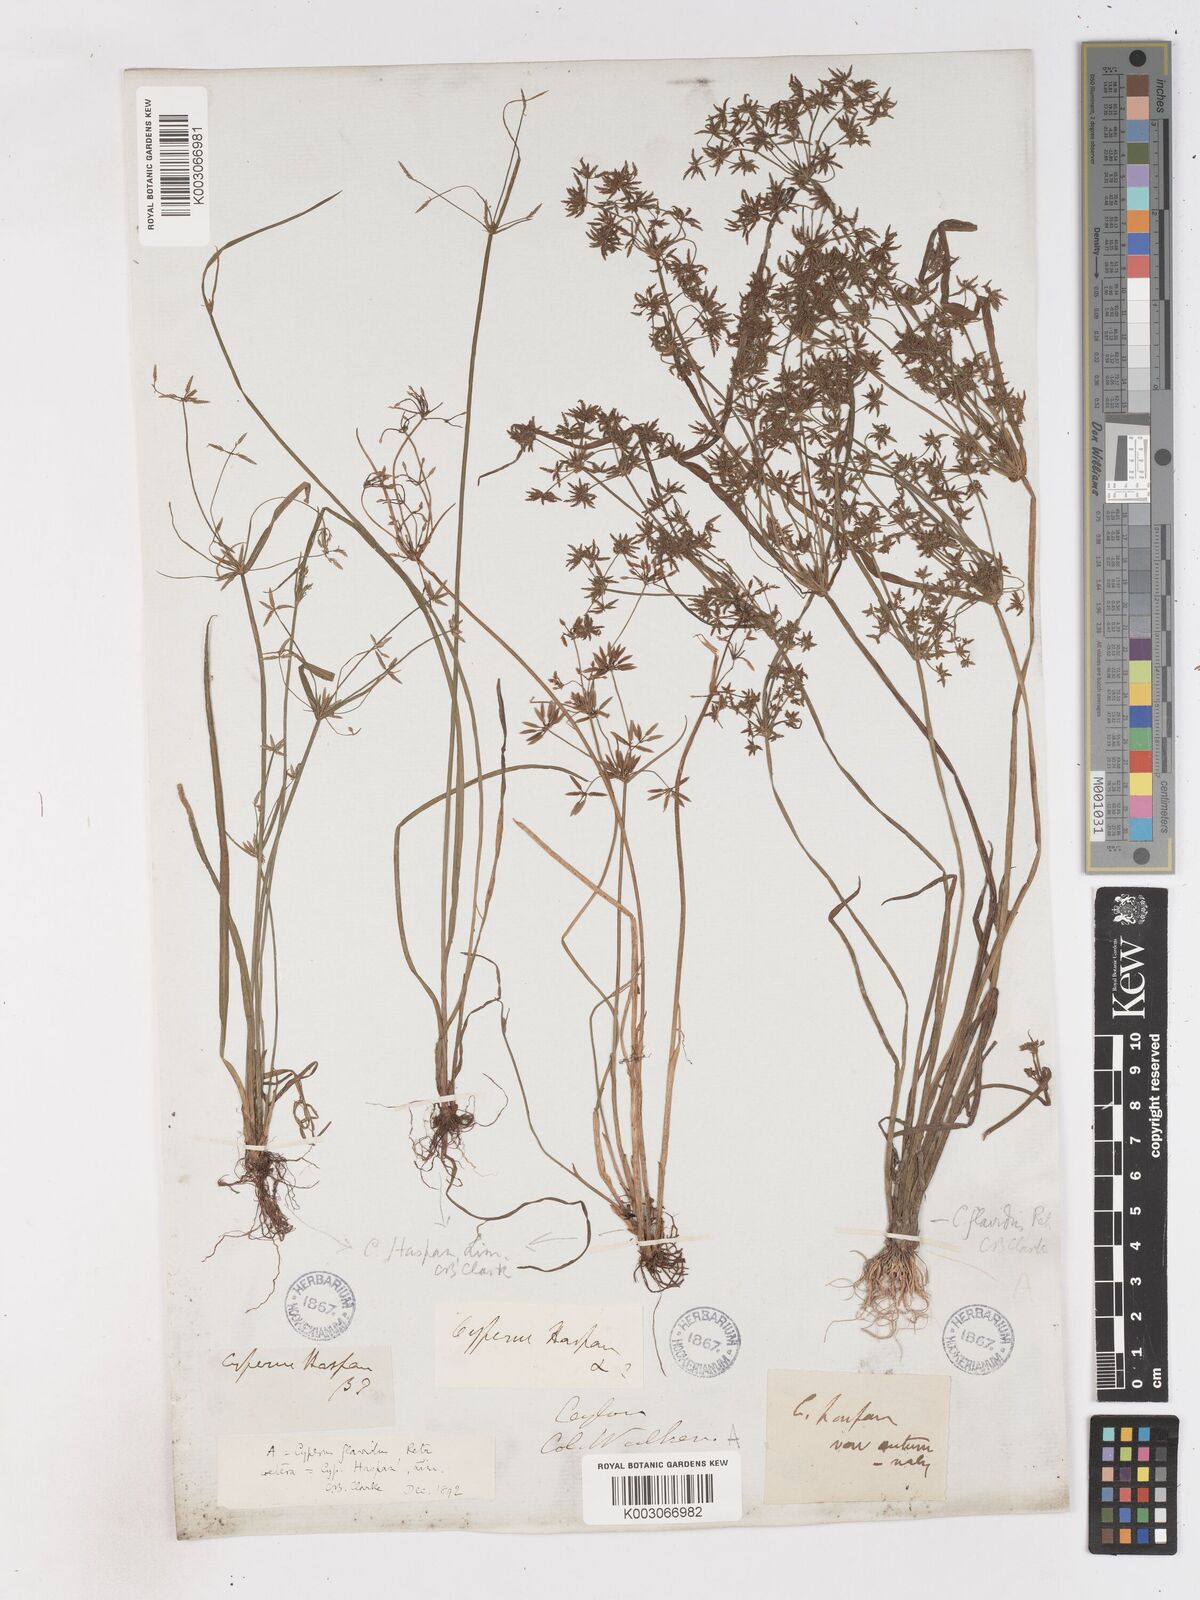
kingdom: Plantae
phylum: Tracheophyta
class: Liliopsida
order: Poales
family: Cyperaceae
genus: Cyperus
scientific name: Cyperus tenuispica
